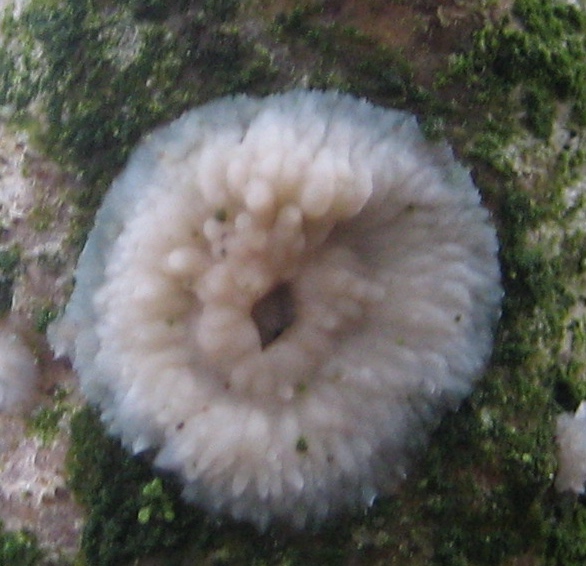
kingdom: Fungi
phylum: Basidiomycota
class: Agaricomycetes
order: Polyporales
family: Meruliaceae
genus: Phlebia
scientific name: Phlebia
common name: åresvamp
